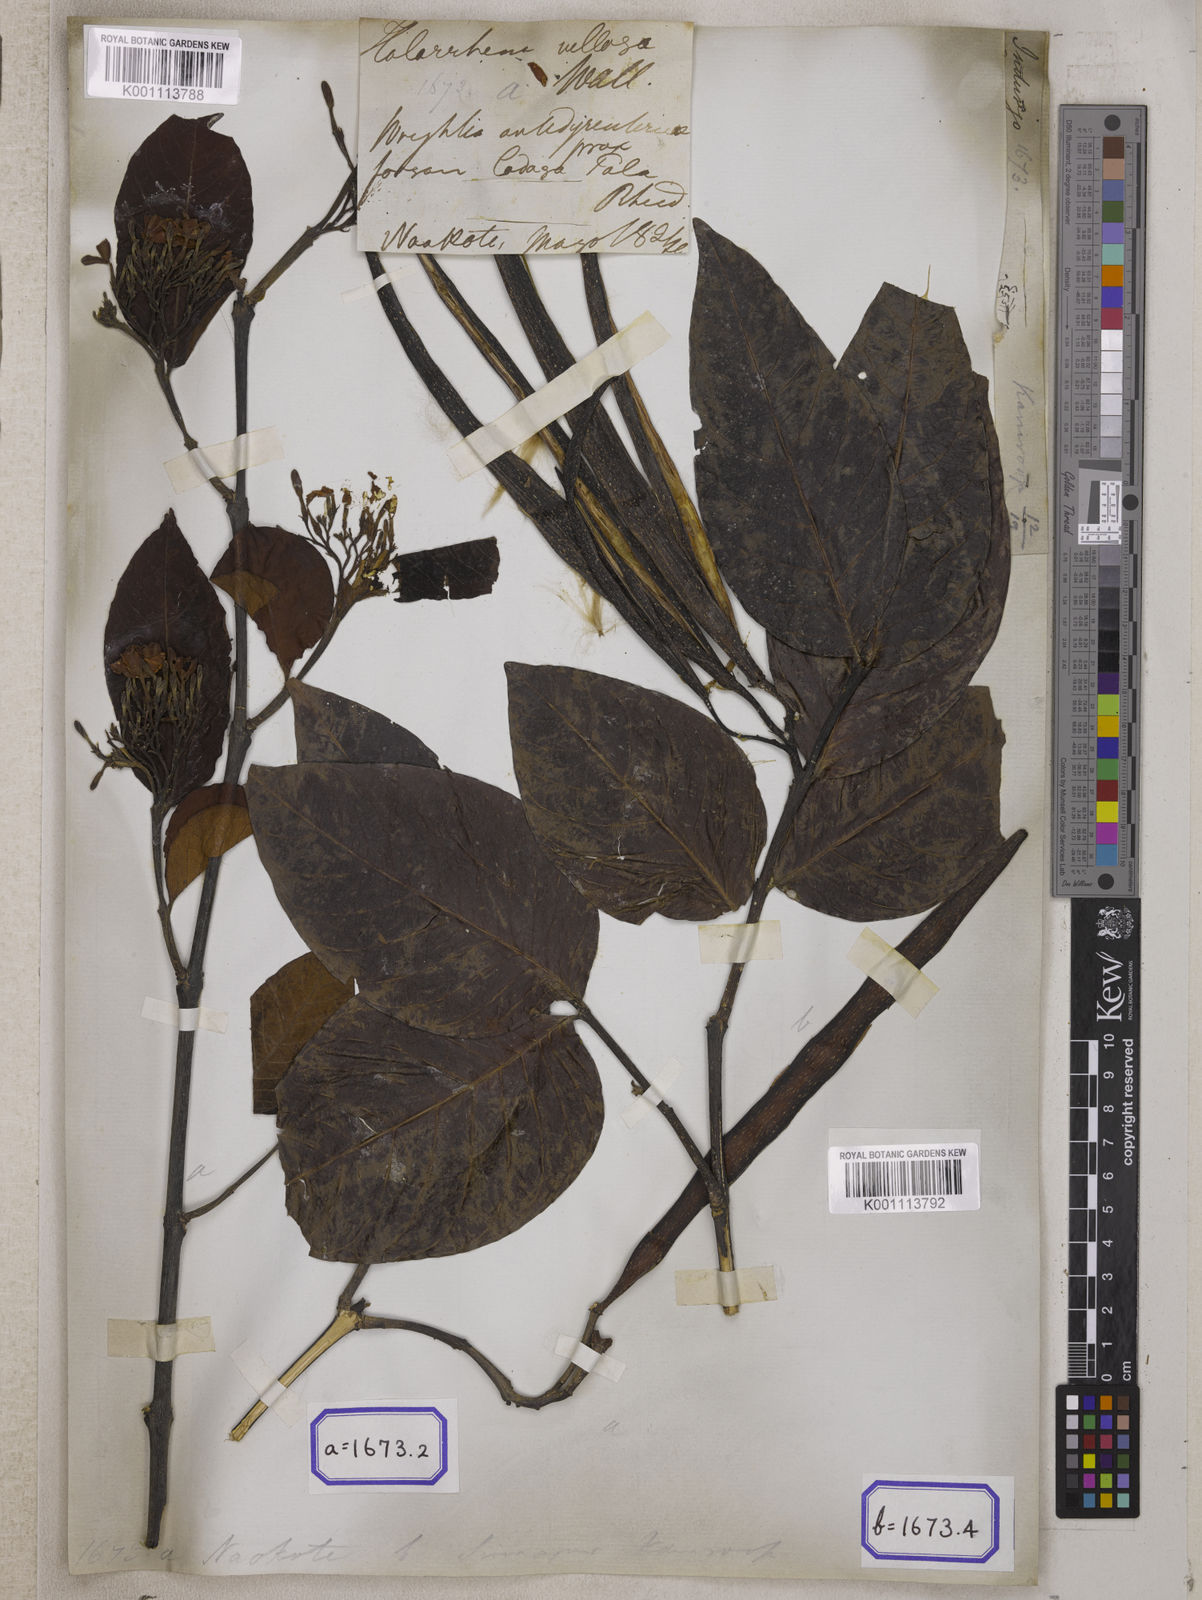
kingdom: Plantae
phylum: Tracheophyta
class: Magnoliopsida
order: Gentianales
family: Apocynaceae
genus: Holarrhena
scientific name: Holarrhena
